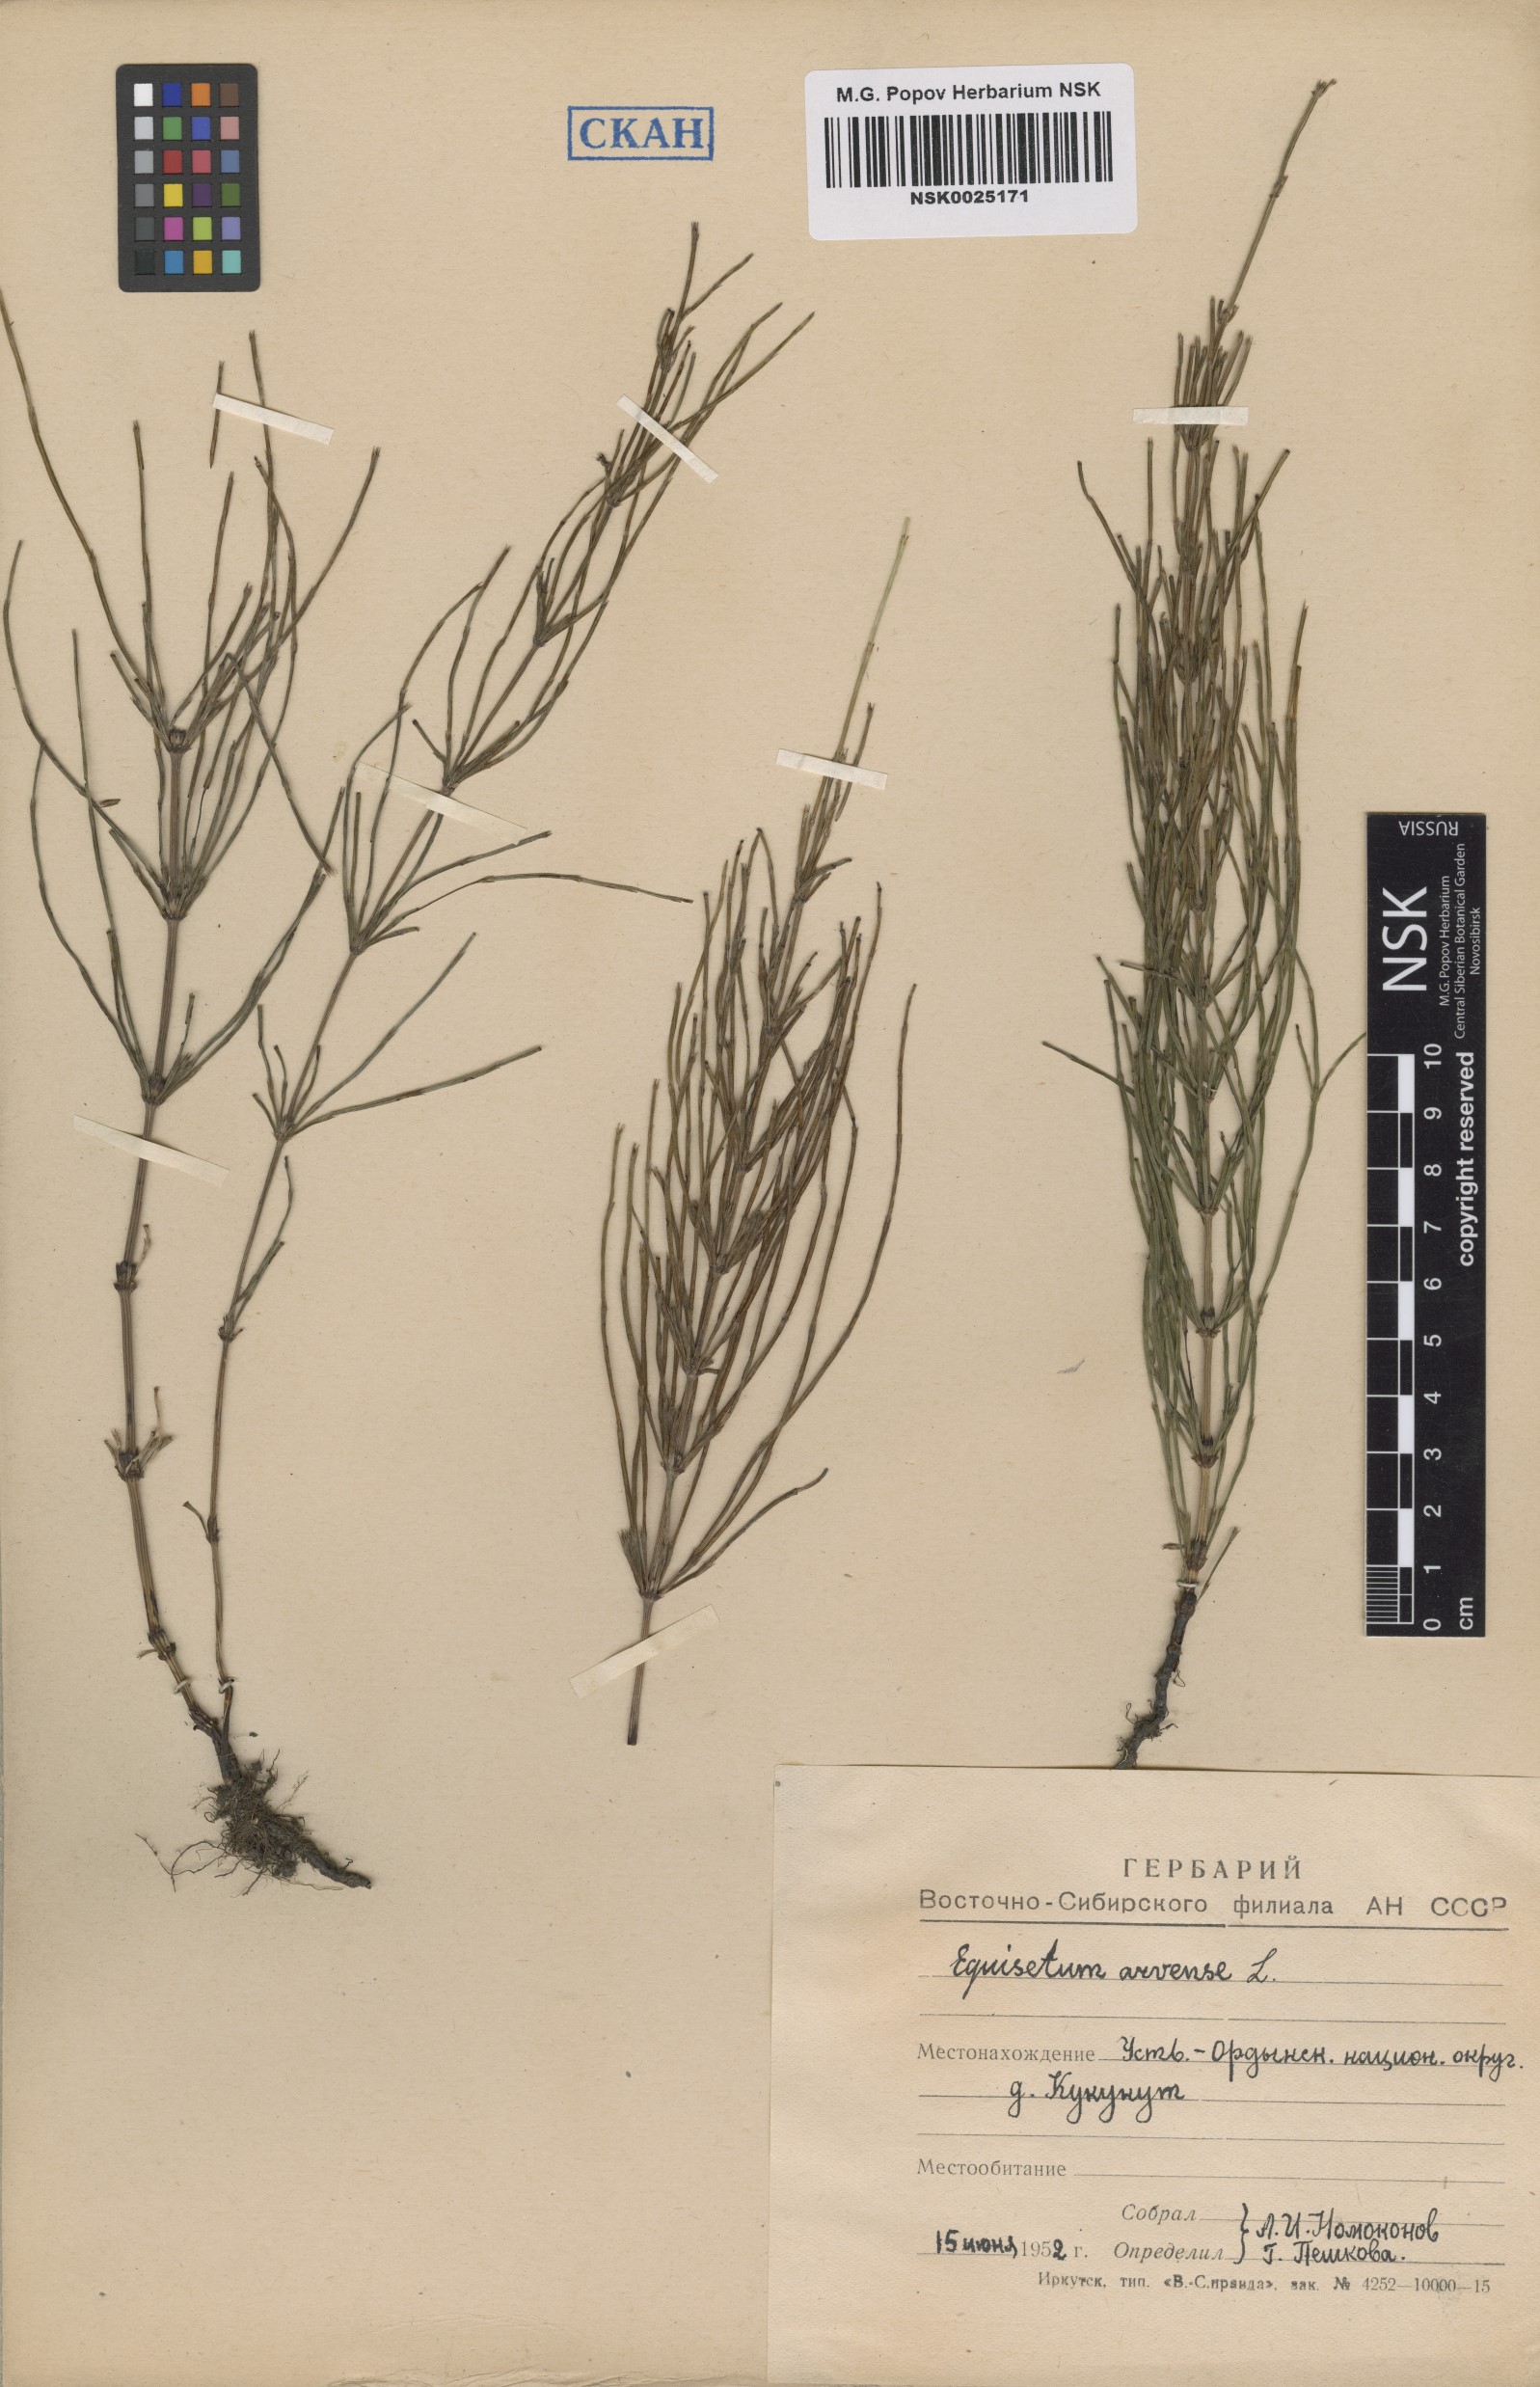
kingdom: Plantae
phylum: Tracheophyta
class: Polypodiopsida
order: Equisetales
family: Equisetaceae
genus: Equisetum
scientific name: Equisetum arvense
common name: Field horsetail
